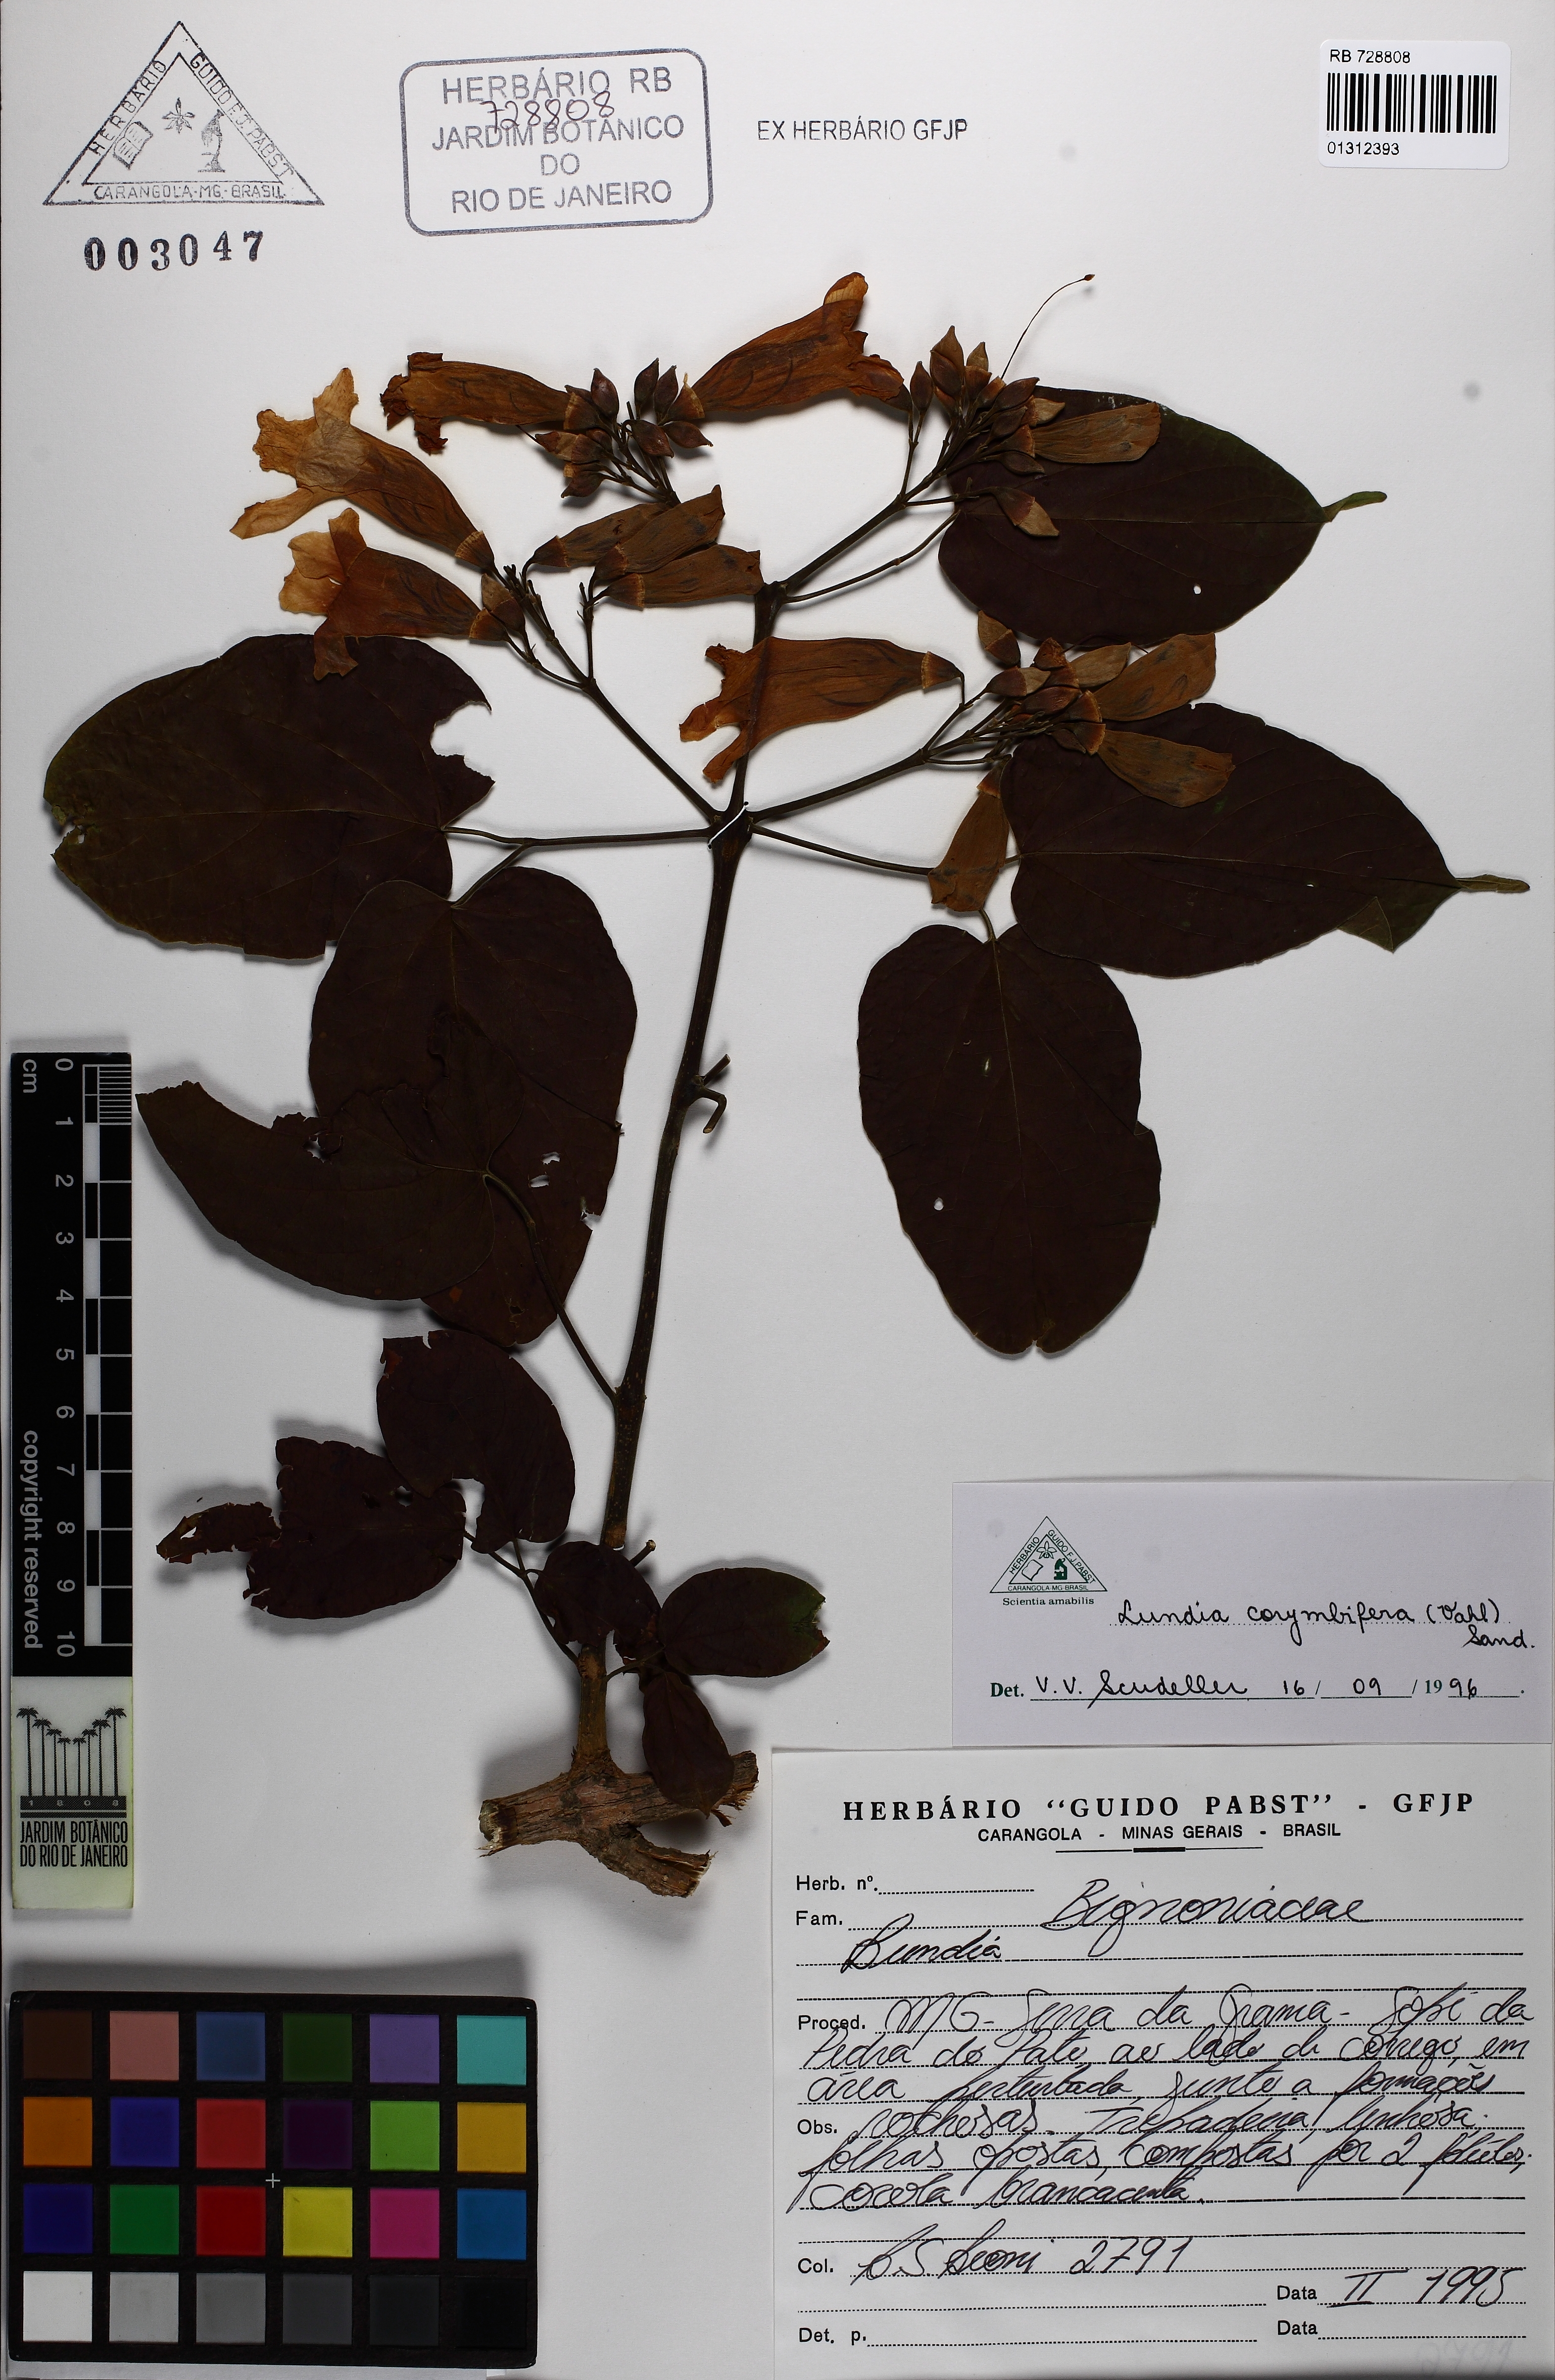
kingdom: Plantae
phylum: Tracheophyta
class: Magnoliopsida
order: Lamiales
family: Bignoniaceae
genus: Lundia
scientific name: Lundia corymbifera
